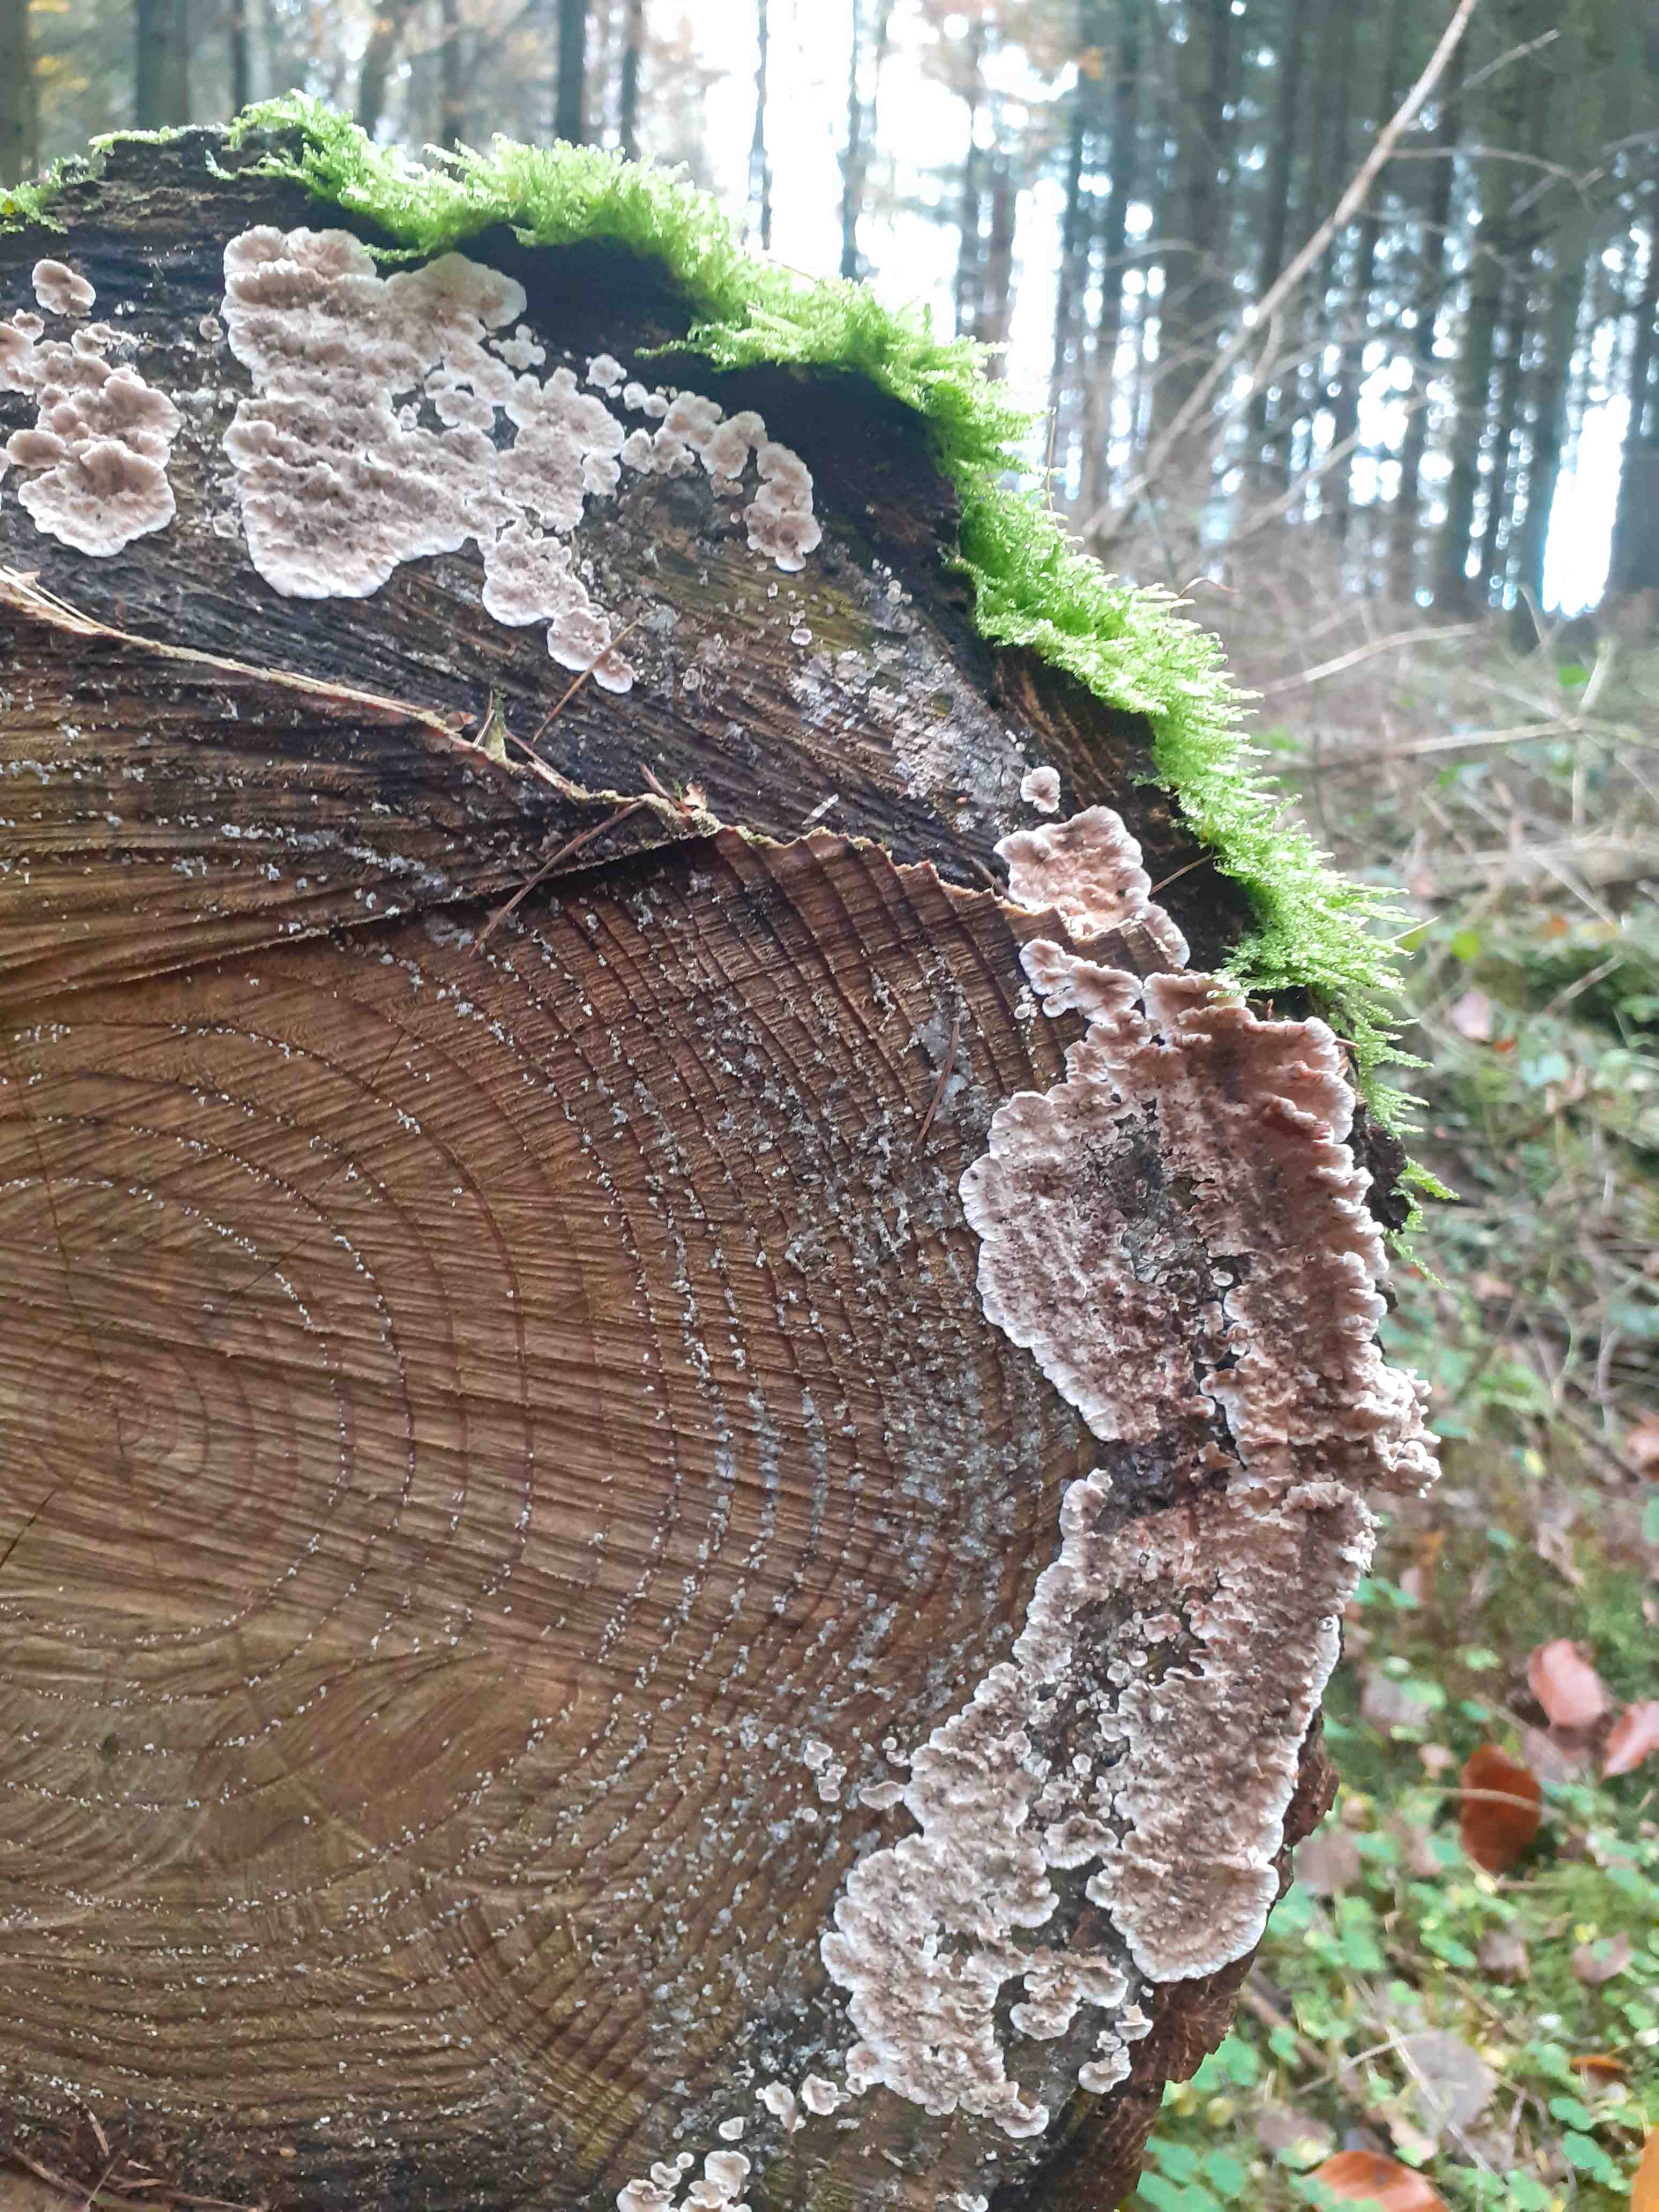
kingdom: Fungi
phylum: Basidiomycota
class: Agaricomycetes
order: Russulales
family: Stereaceae
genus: Stereum
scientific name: Stereum sanguinolentum
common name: blødende lædersvamp
